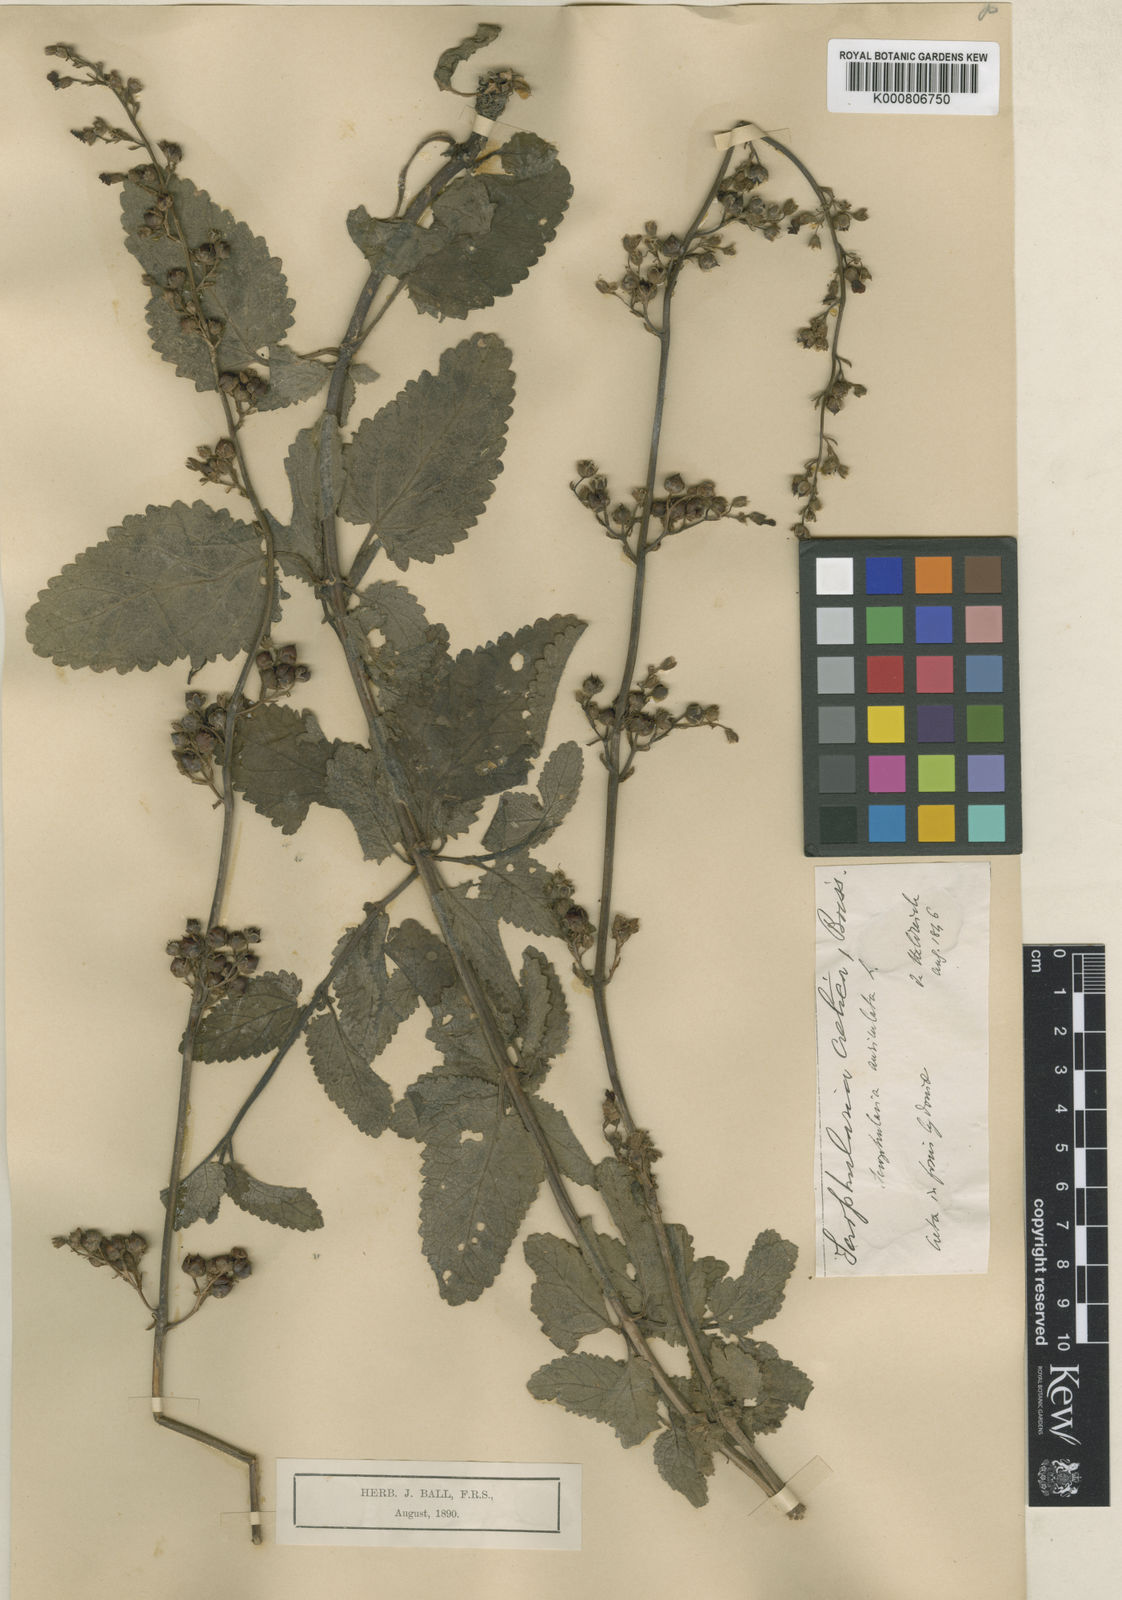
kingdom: Plantae
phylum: Tracheophyta
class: Magnoliopsida
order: Lamiales
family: Scrophulariaceae
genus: Scrophularia
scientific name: Scrophularia auriculata
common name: Water betony
